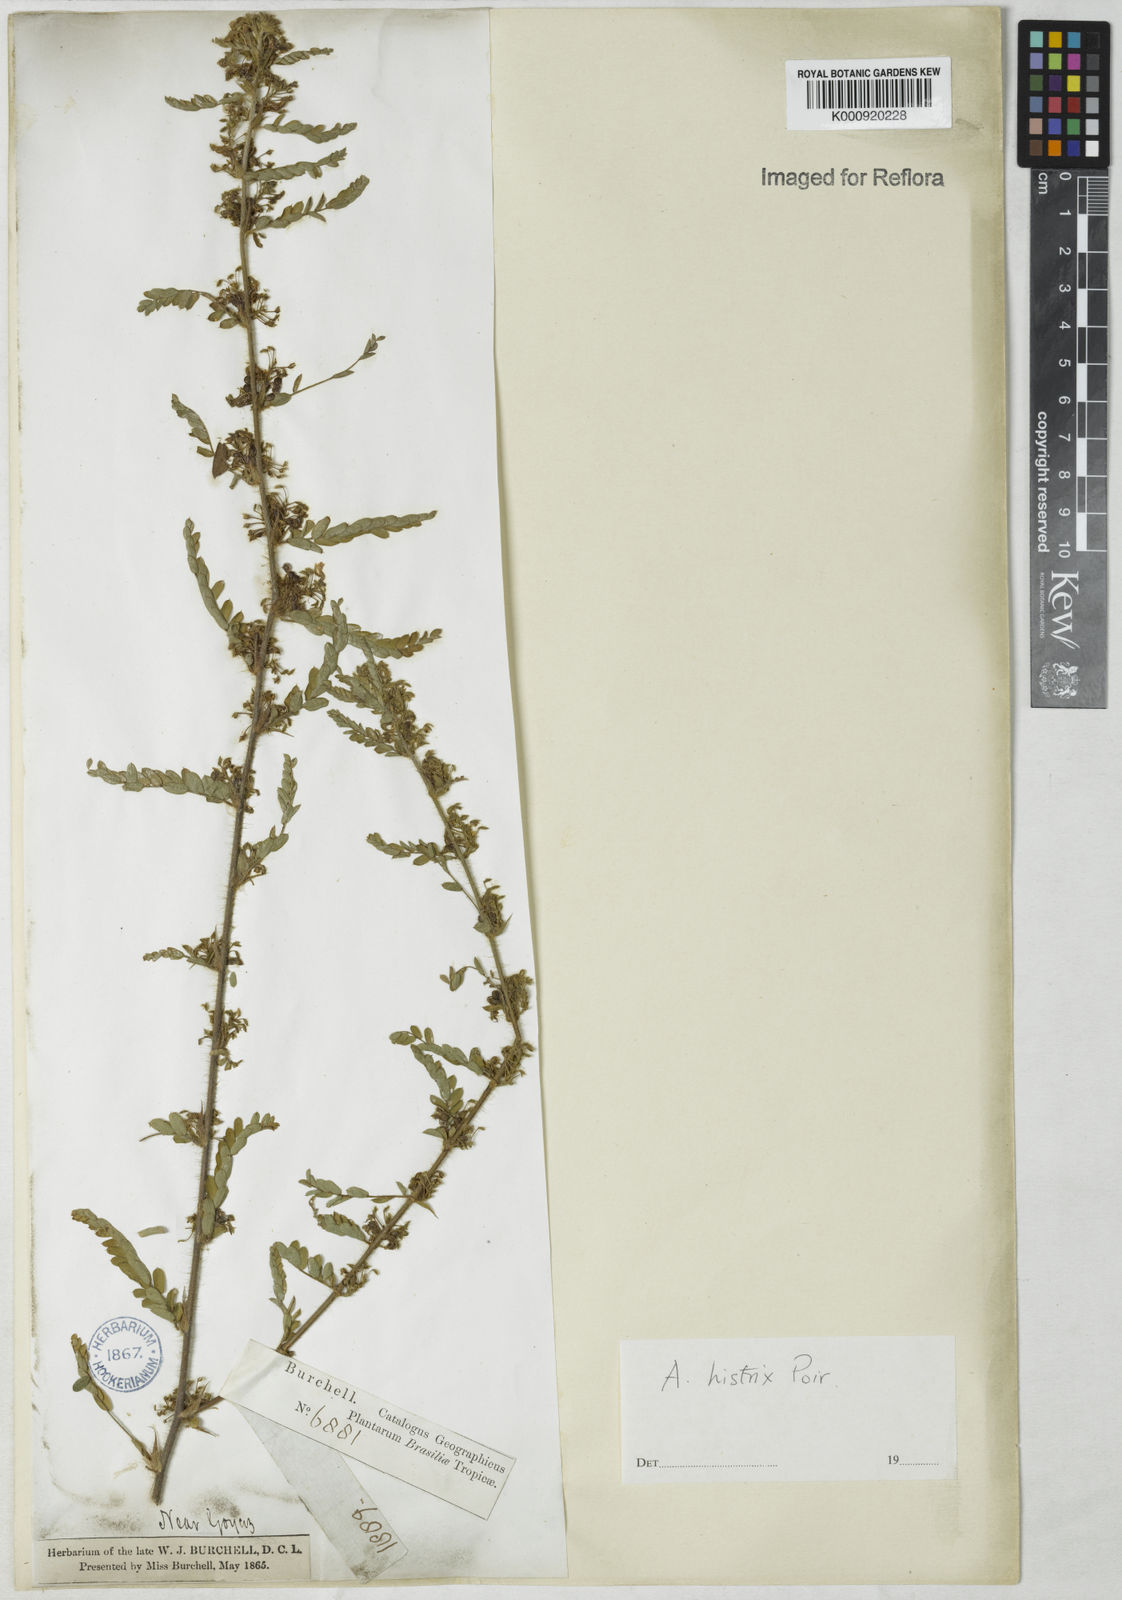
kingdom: Plantae
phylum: Tracheophyta
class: Magnoliopsida
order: Fabales
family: Fabaceae
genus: Ctenodon
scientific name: Ctenodon histrix
